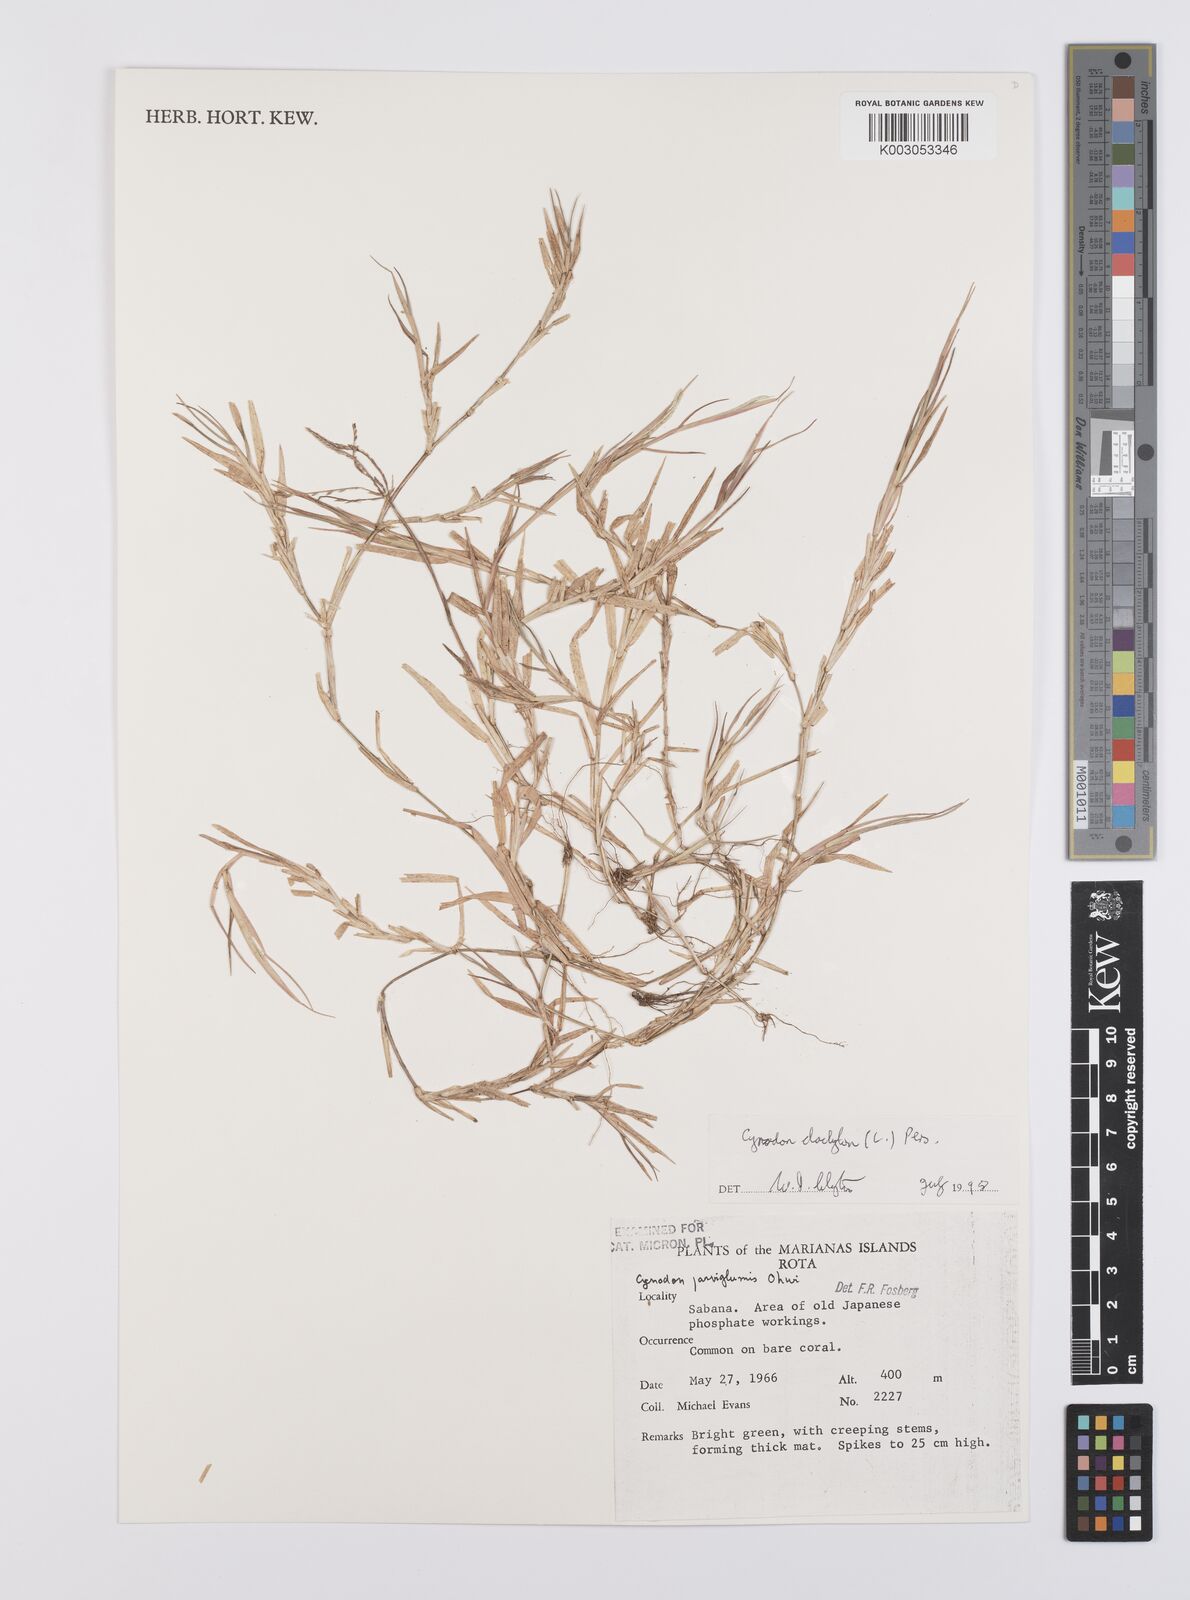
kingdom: Plantae
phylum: Tracheophyta
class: Liliopsida
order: Poales
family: Poaceae
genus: Cynodon
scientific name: Cynodon dactylon
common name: Bermuda grass
